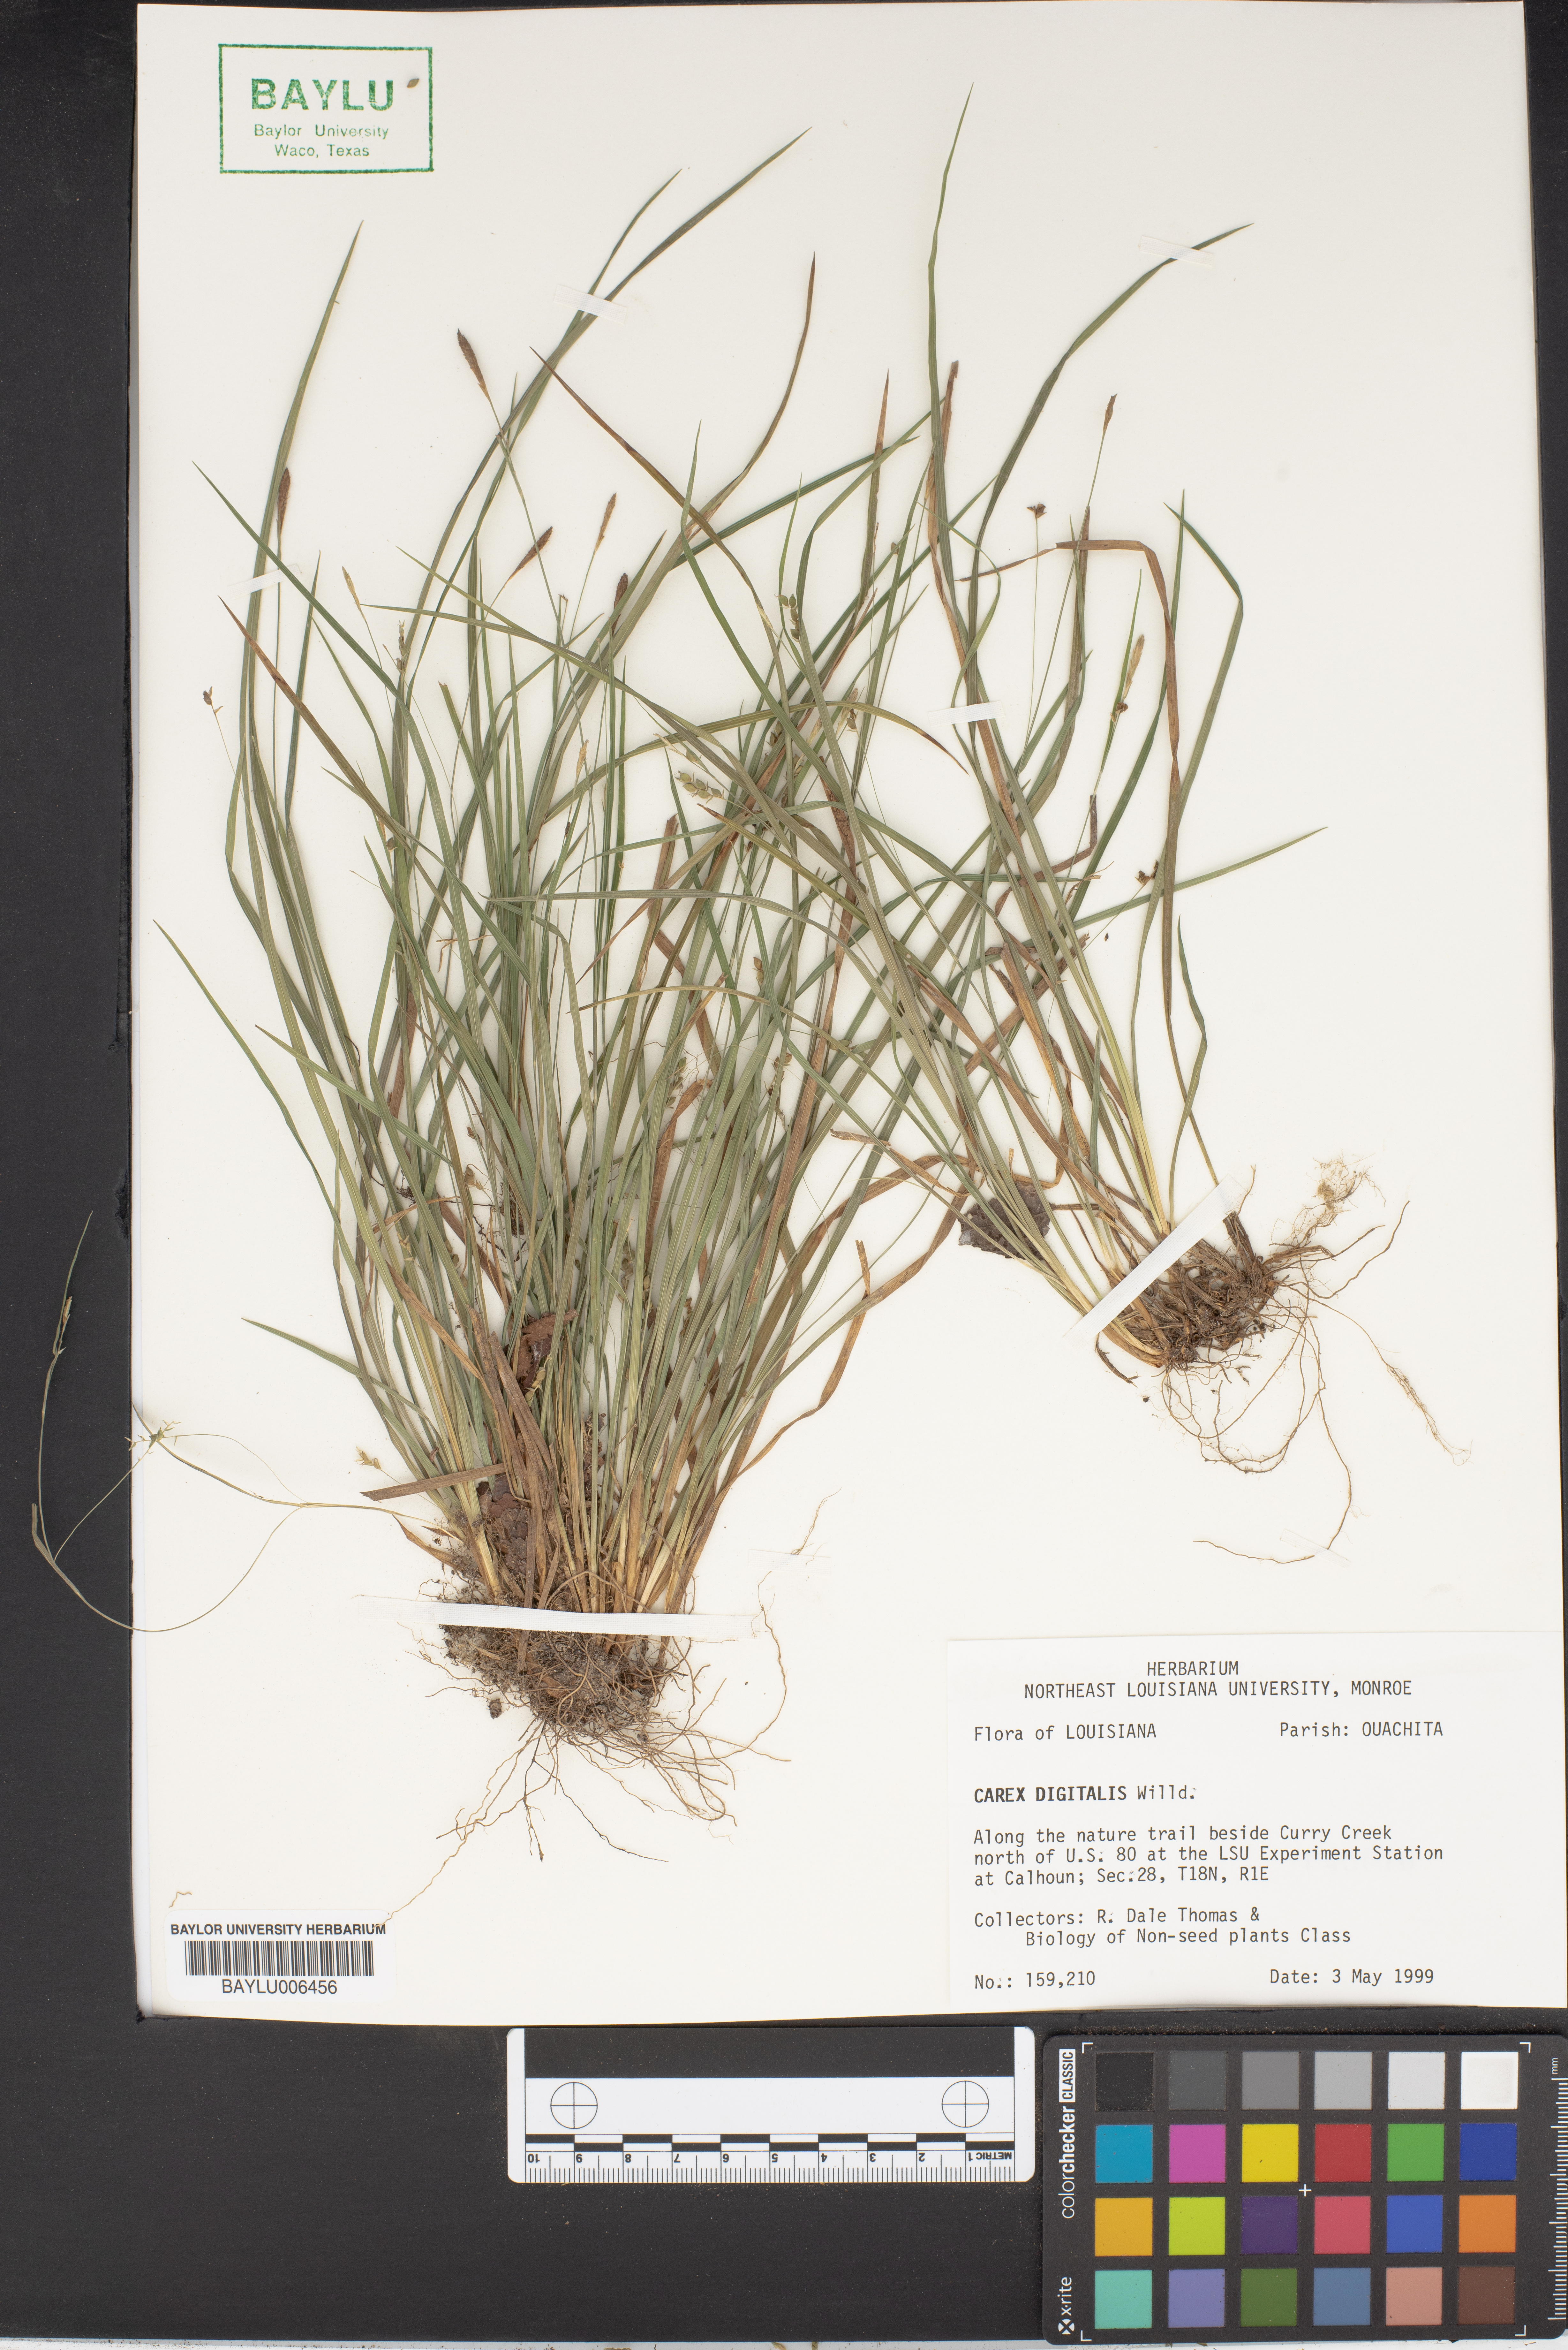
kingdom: Plantae
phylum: Tracheophyta
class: Liliopsida
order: Poales
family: Cyperaceae
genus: Carex
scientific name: Carex digitalis
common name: Slender wood sedge
